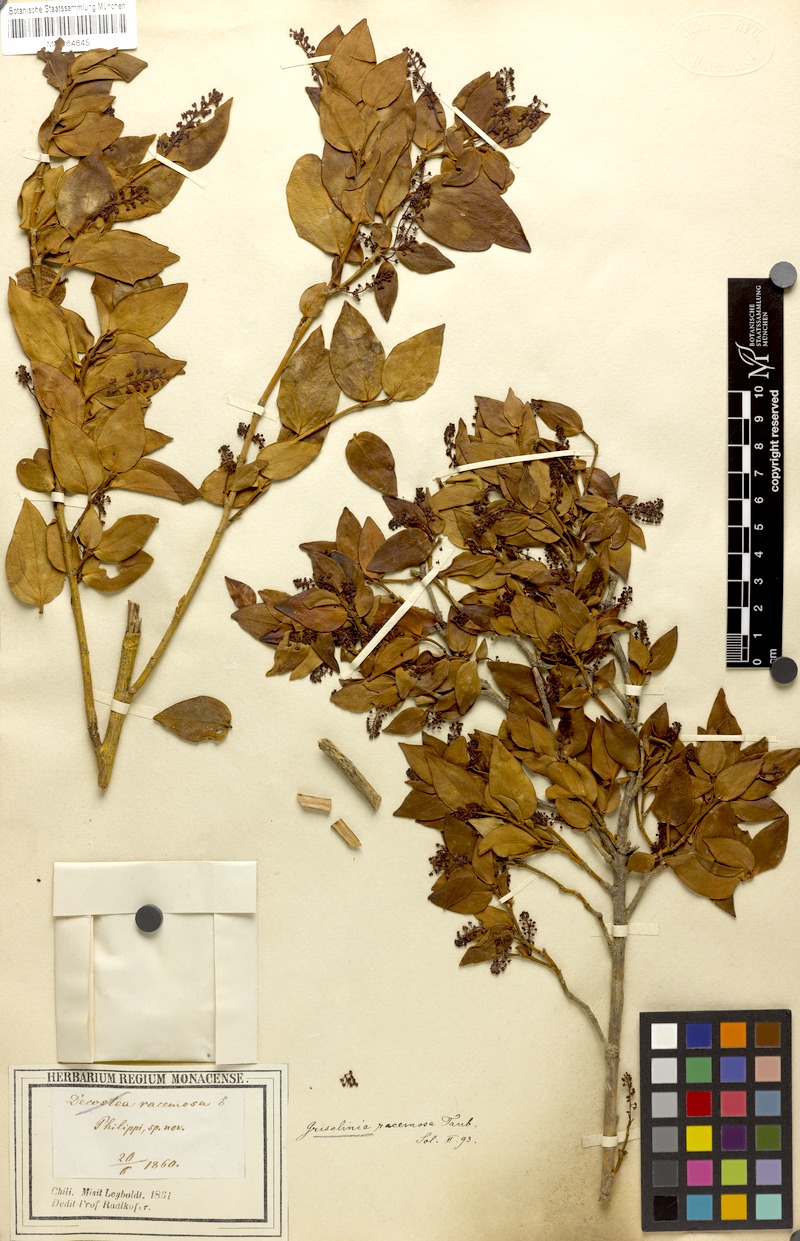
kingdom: Plantae
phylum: Tracheophyta
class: Magnoliopsida
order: Apiales
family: Griseliniaceae
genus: Griselinia
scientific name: Griselinia racemosa
